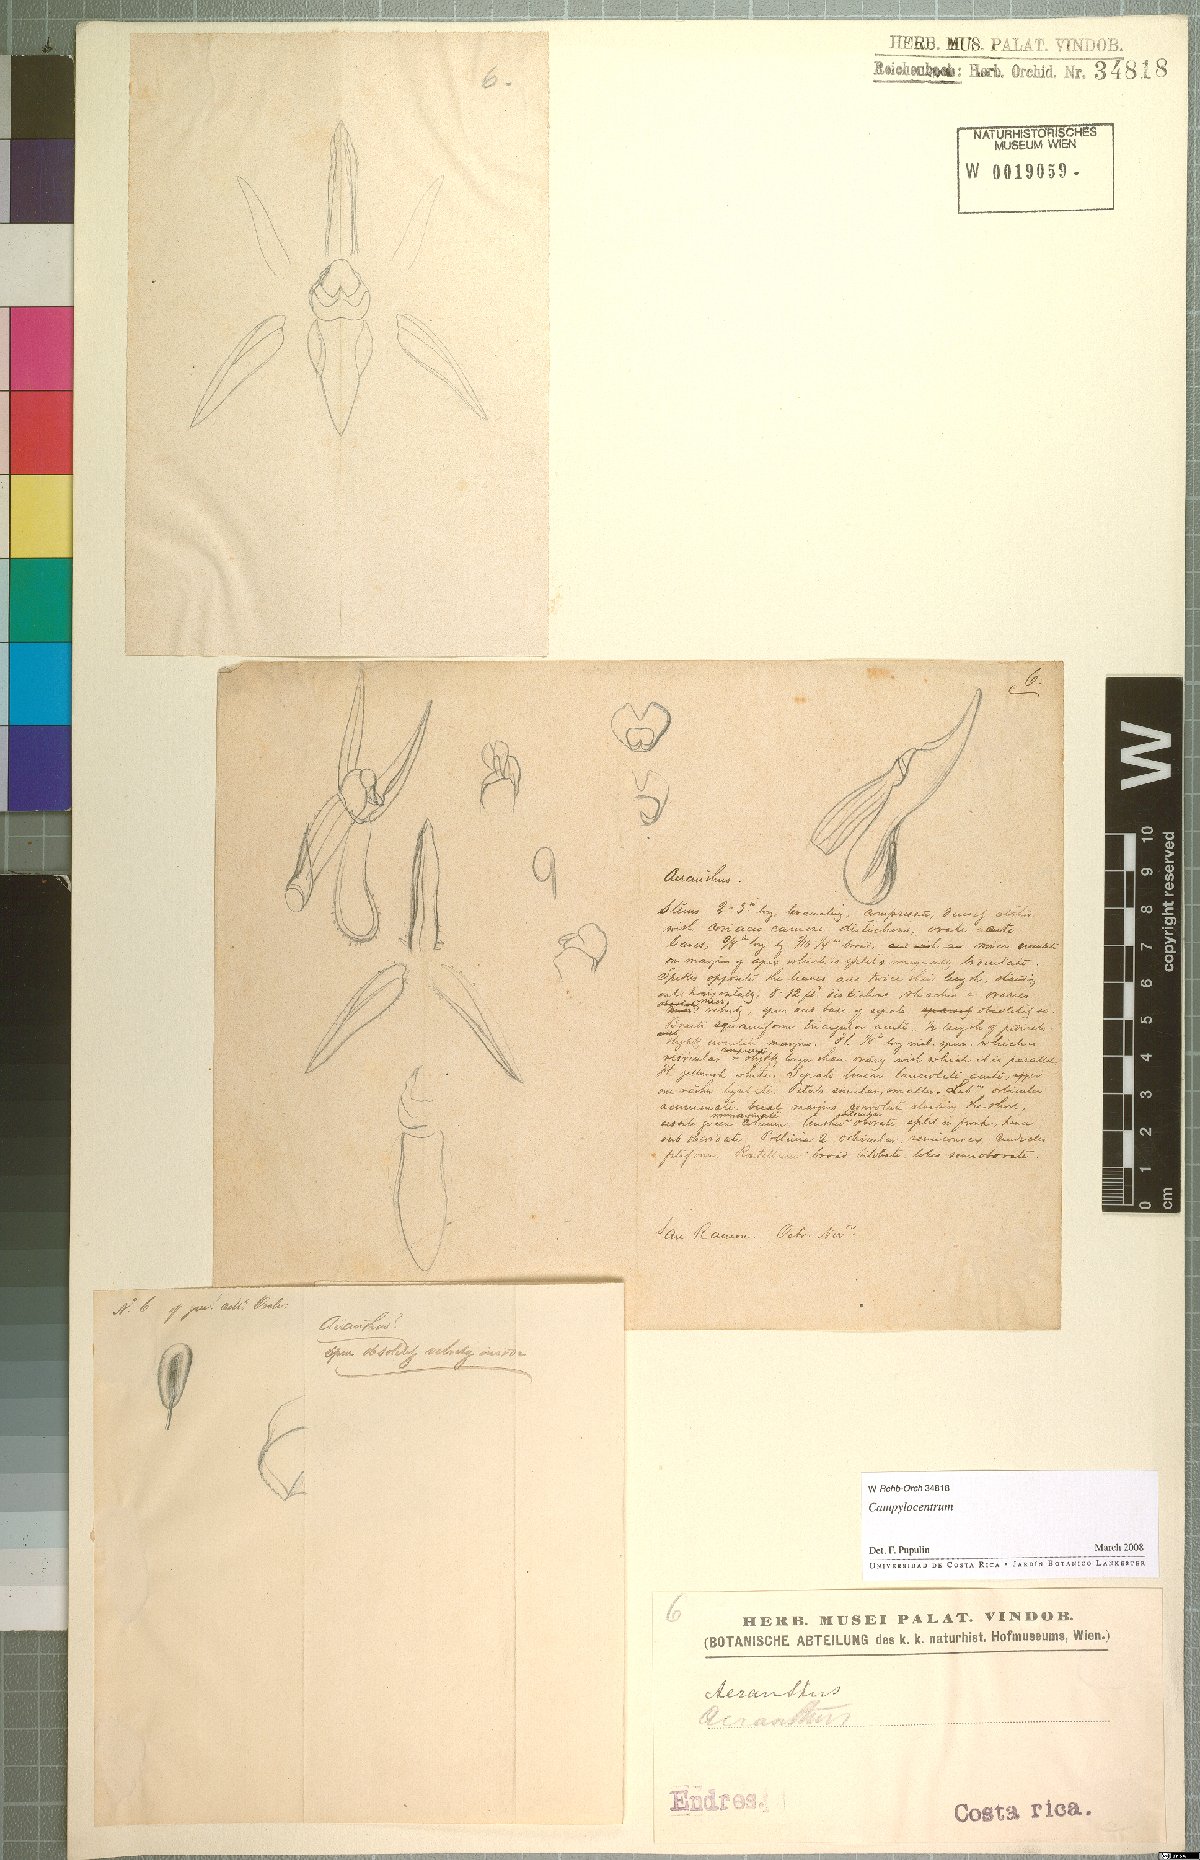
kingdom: Plantae
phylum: Tracheophyta
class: Liliopsida
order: Asparagales
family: Orchidaceae
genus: Campylocentrum
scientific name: Campylocentrum
